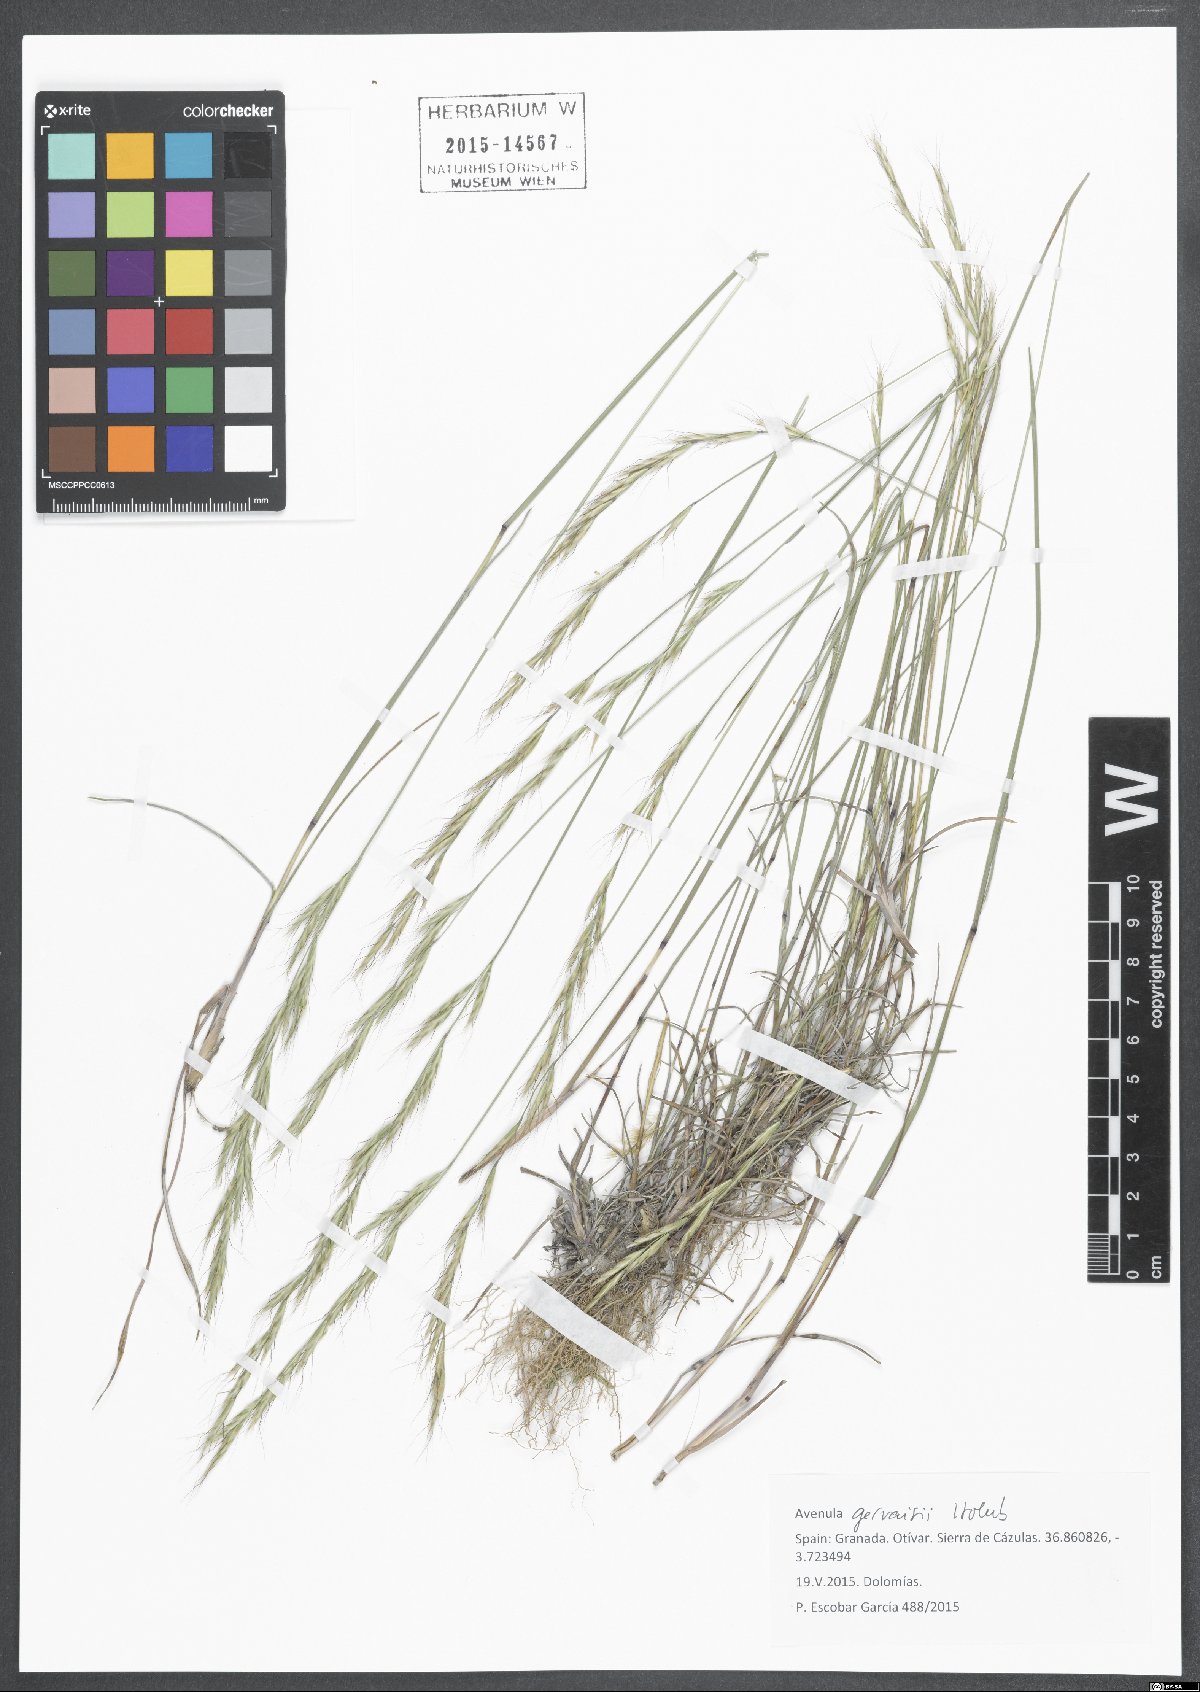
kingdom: Plantae
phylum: Tracheophyta
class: Liliopsida
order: Poales
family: Poaceae
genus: Helictochloa
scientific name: Helictochloa gervaisii
